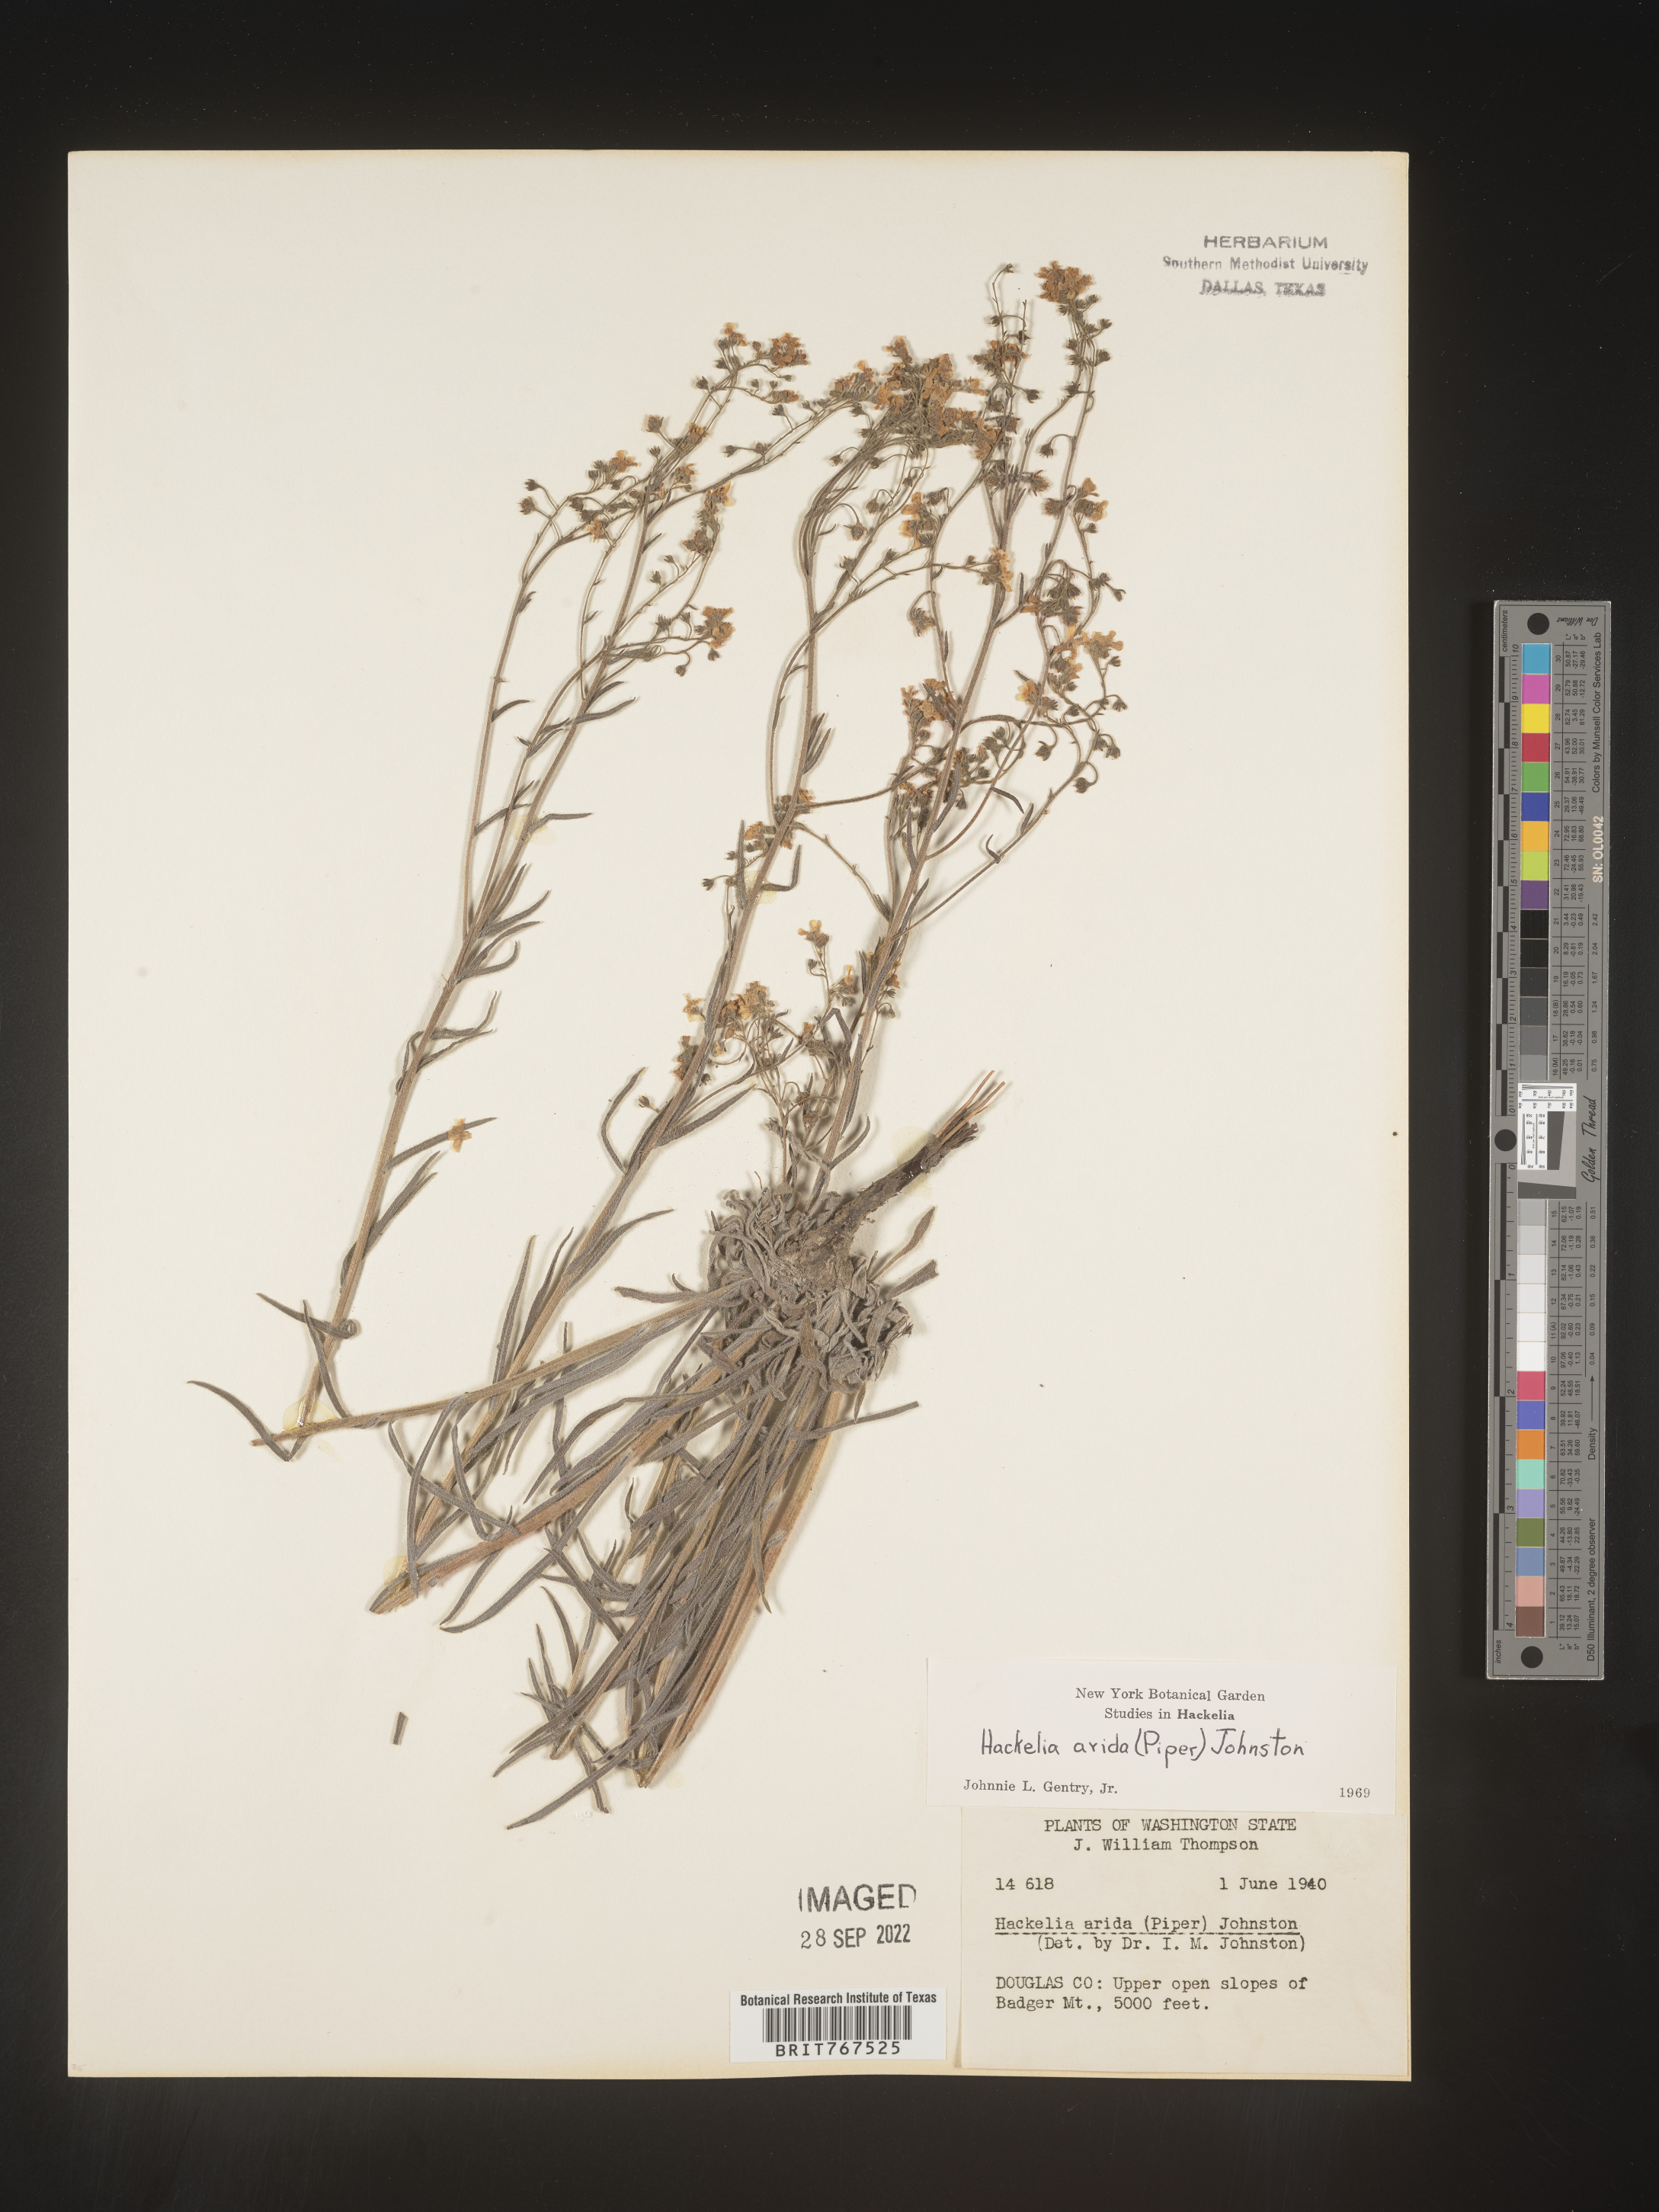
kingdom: Plantae
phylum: Tracheophyta
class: Magnoliopsida
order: Boraginales
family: Boraginaceae
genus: Hackelia
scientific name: Hackelia
